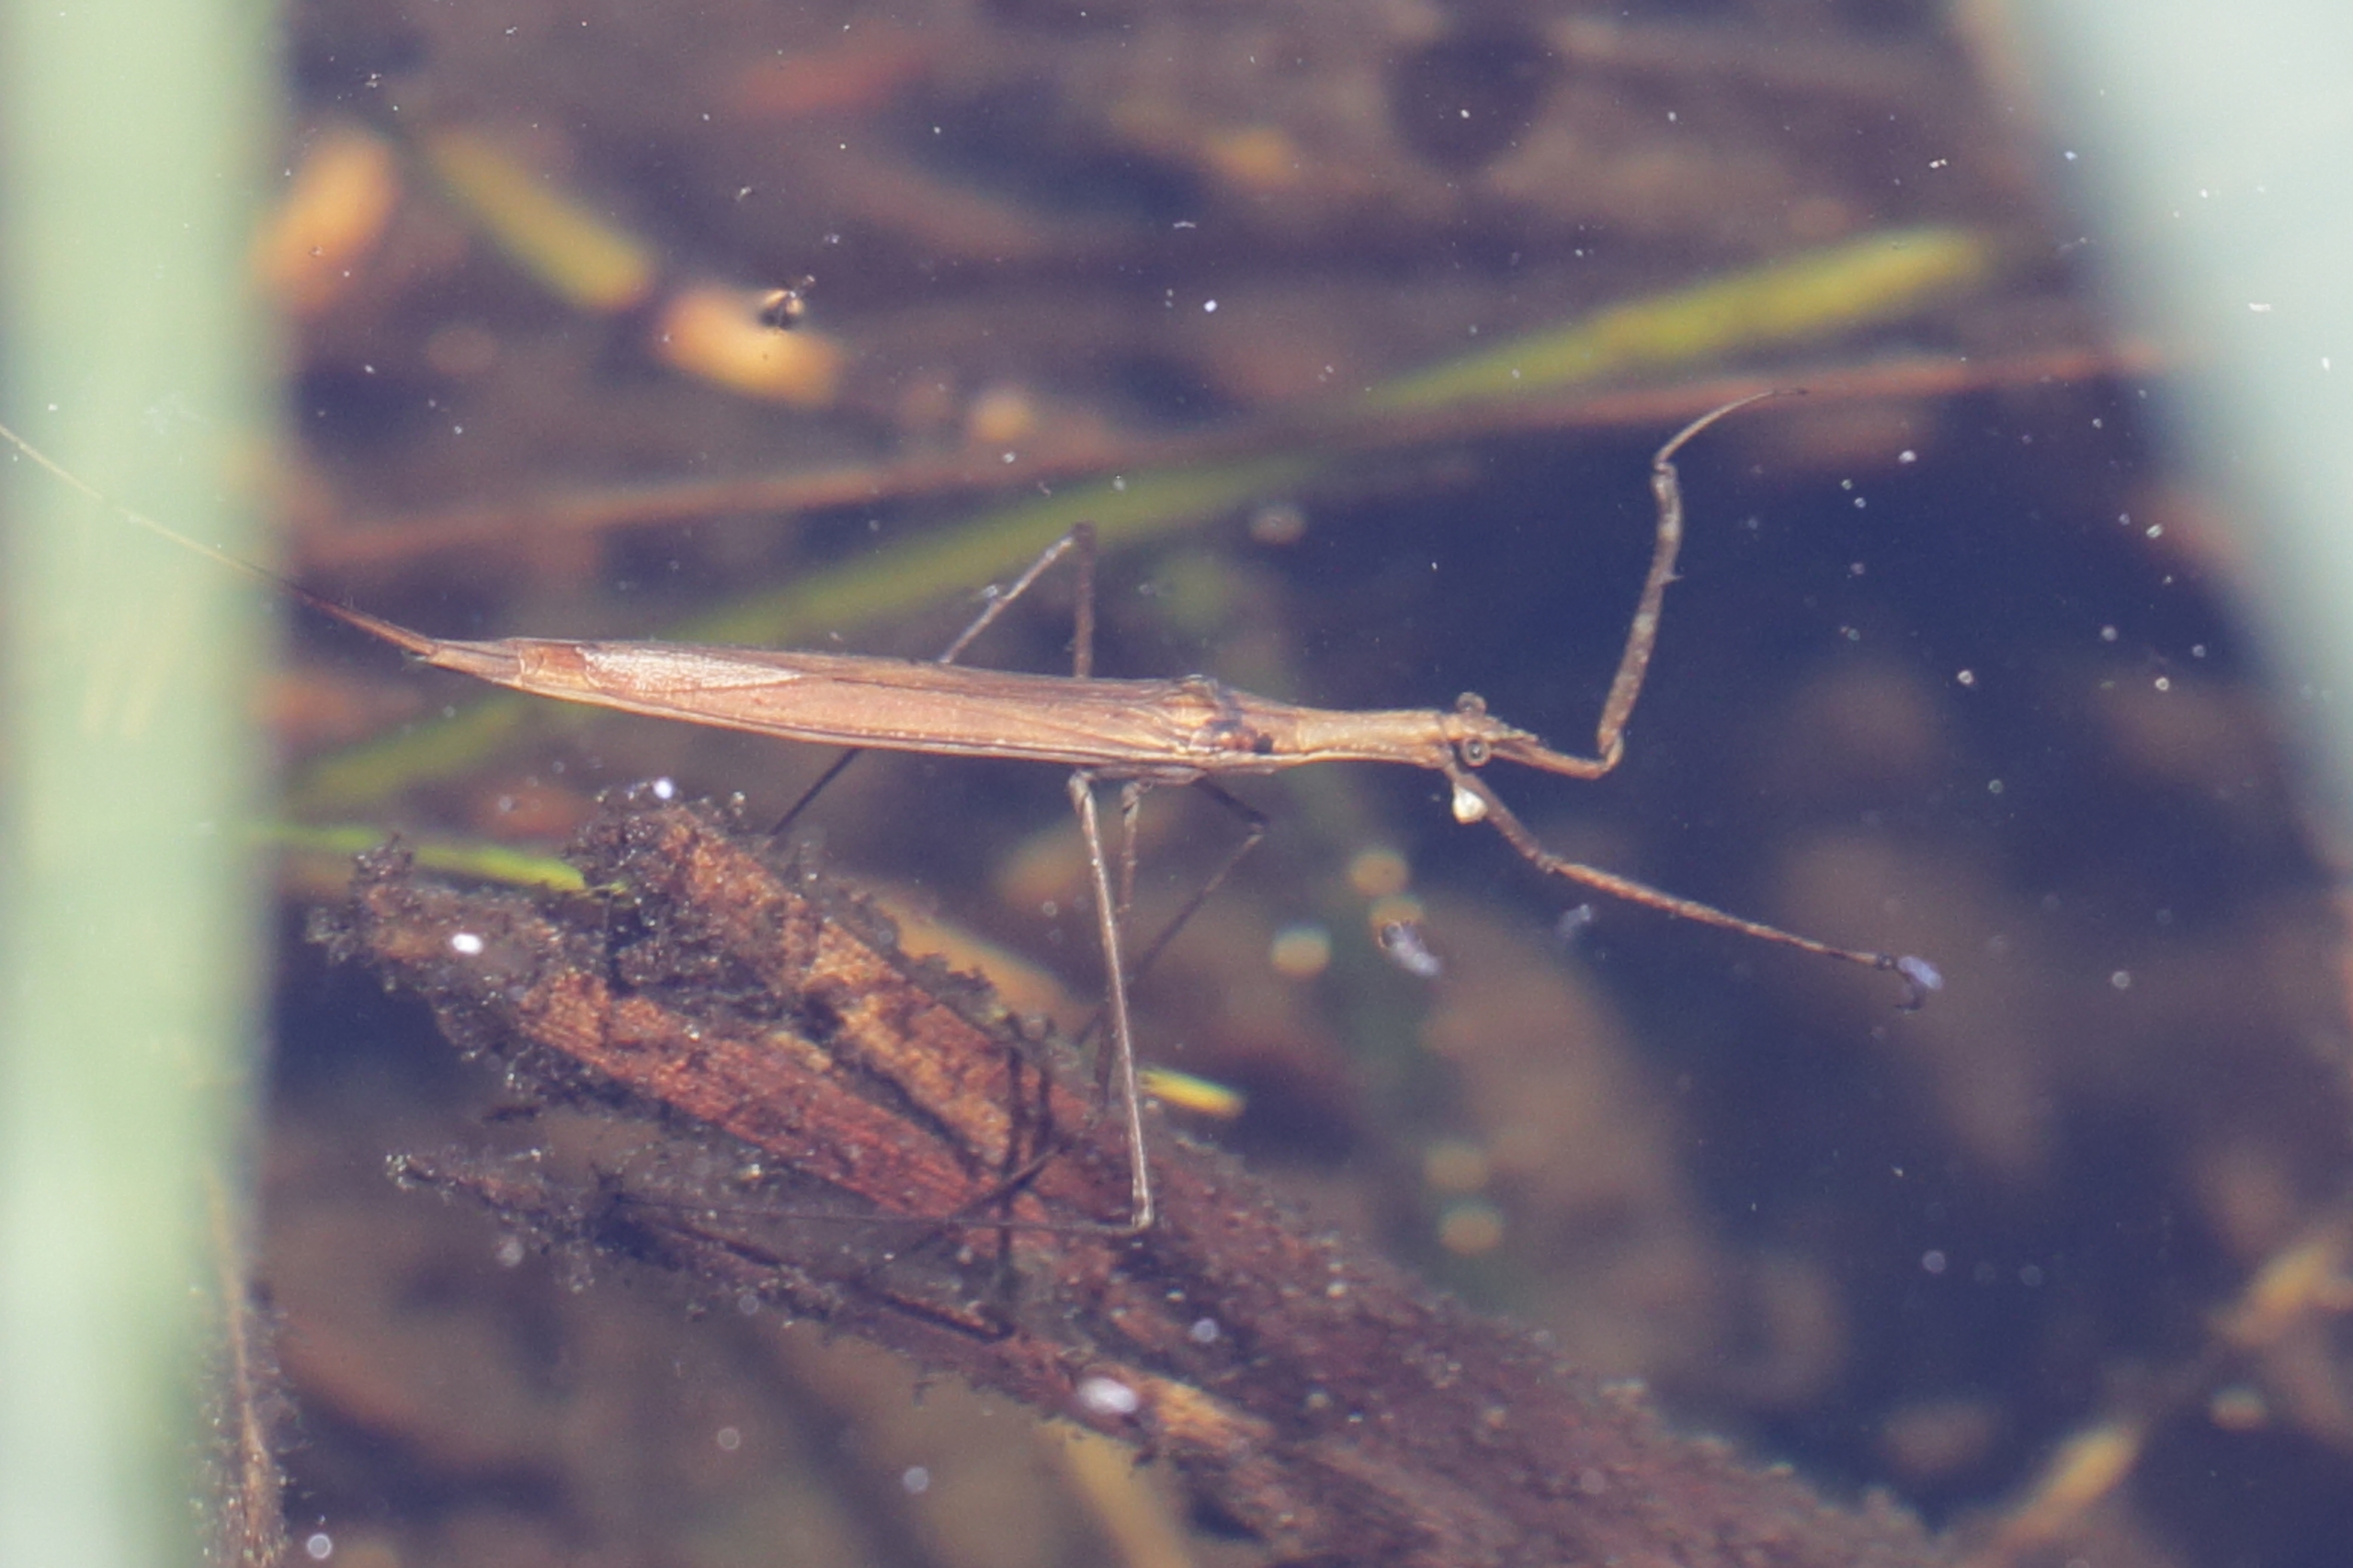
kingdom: Animalia
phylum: Arthropoda
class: Insecta
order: Hemiptera
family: Nepidae
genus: Ranatra
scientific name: Ranatra linearis
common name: Stavtæge
